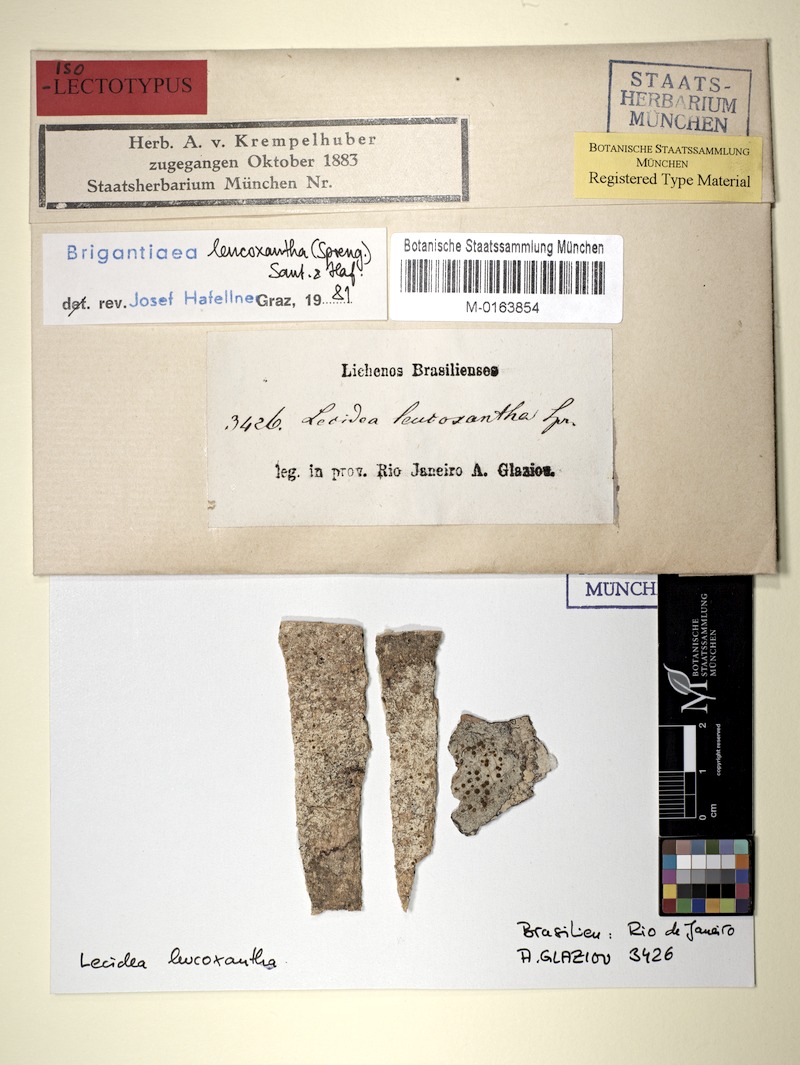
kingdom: Fungi
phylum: Ascomycota
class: Lecanoromycetes
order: Teloschistales
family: Brigantiaeaceae
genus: Brigantiaea
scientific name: Brigantiaea leucoxantha
